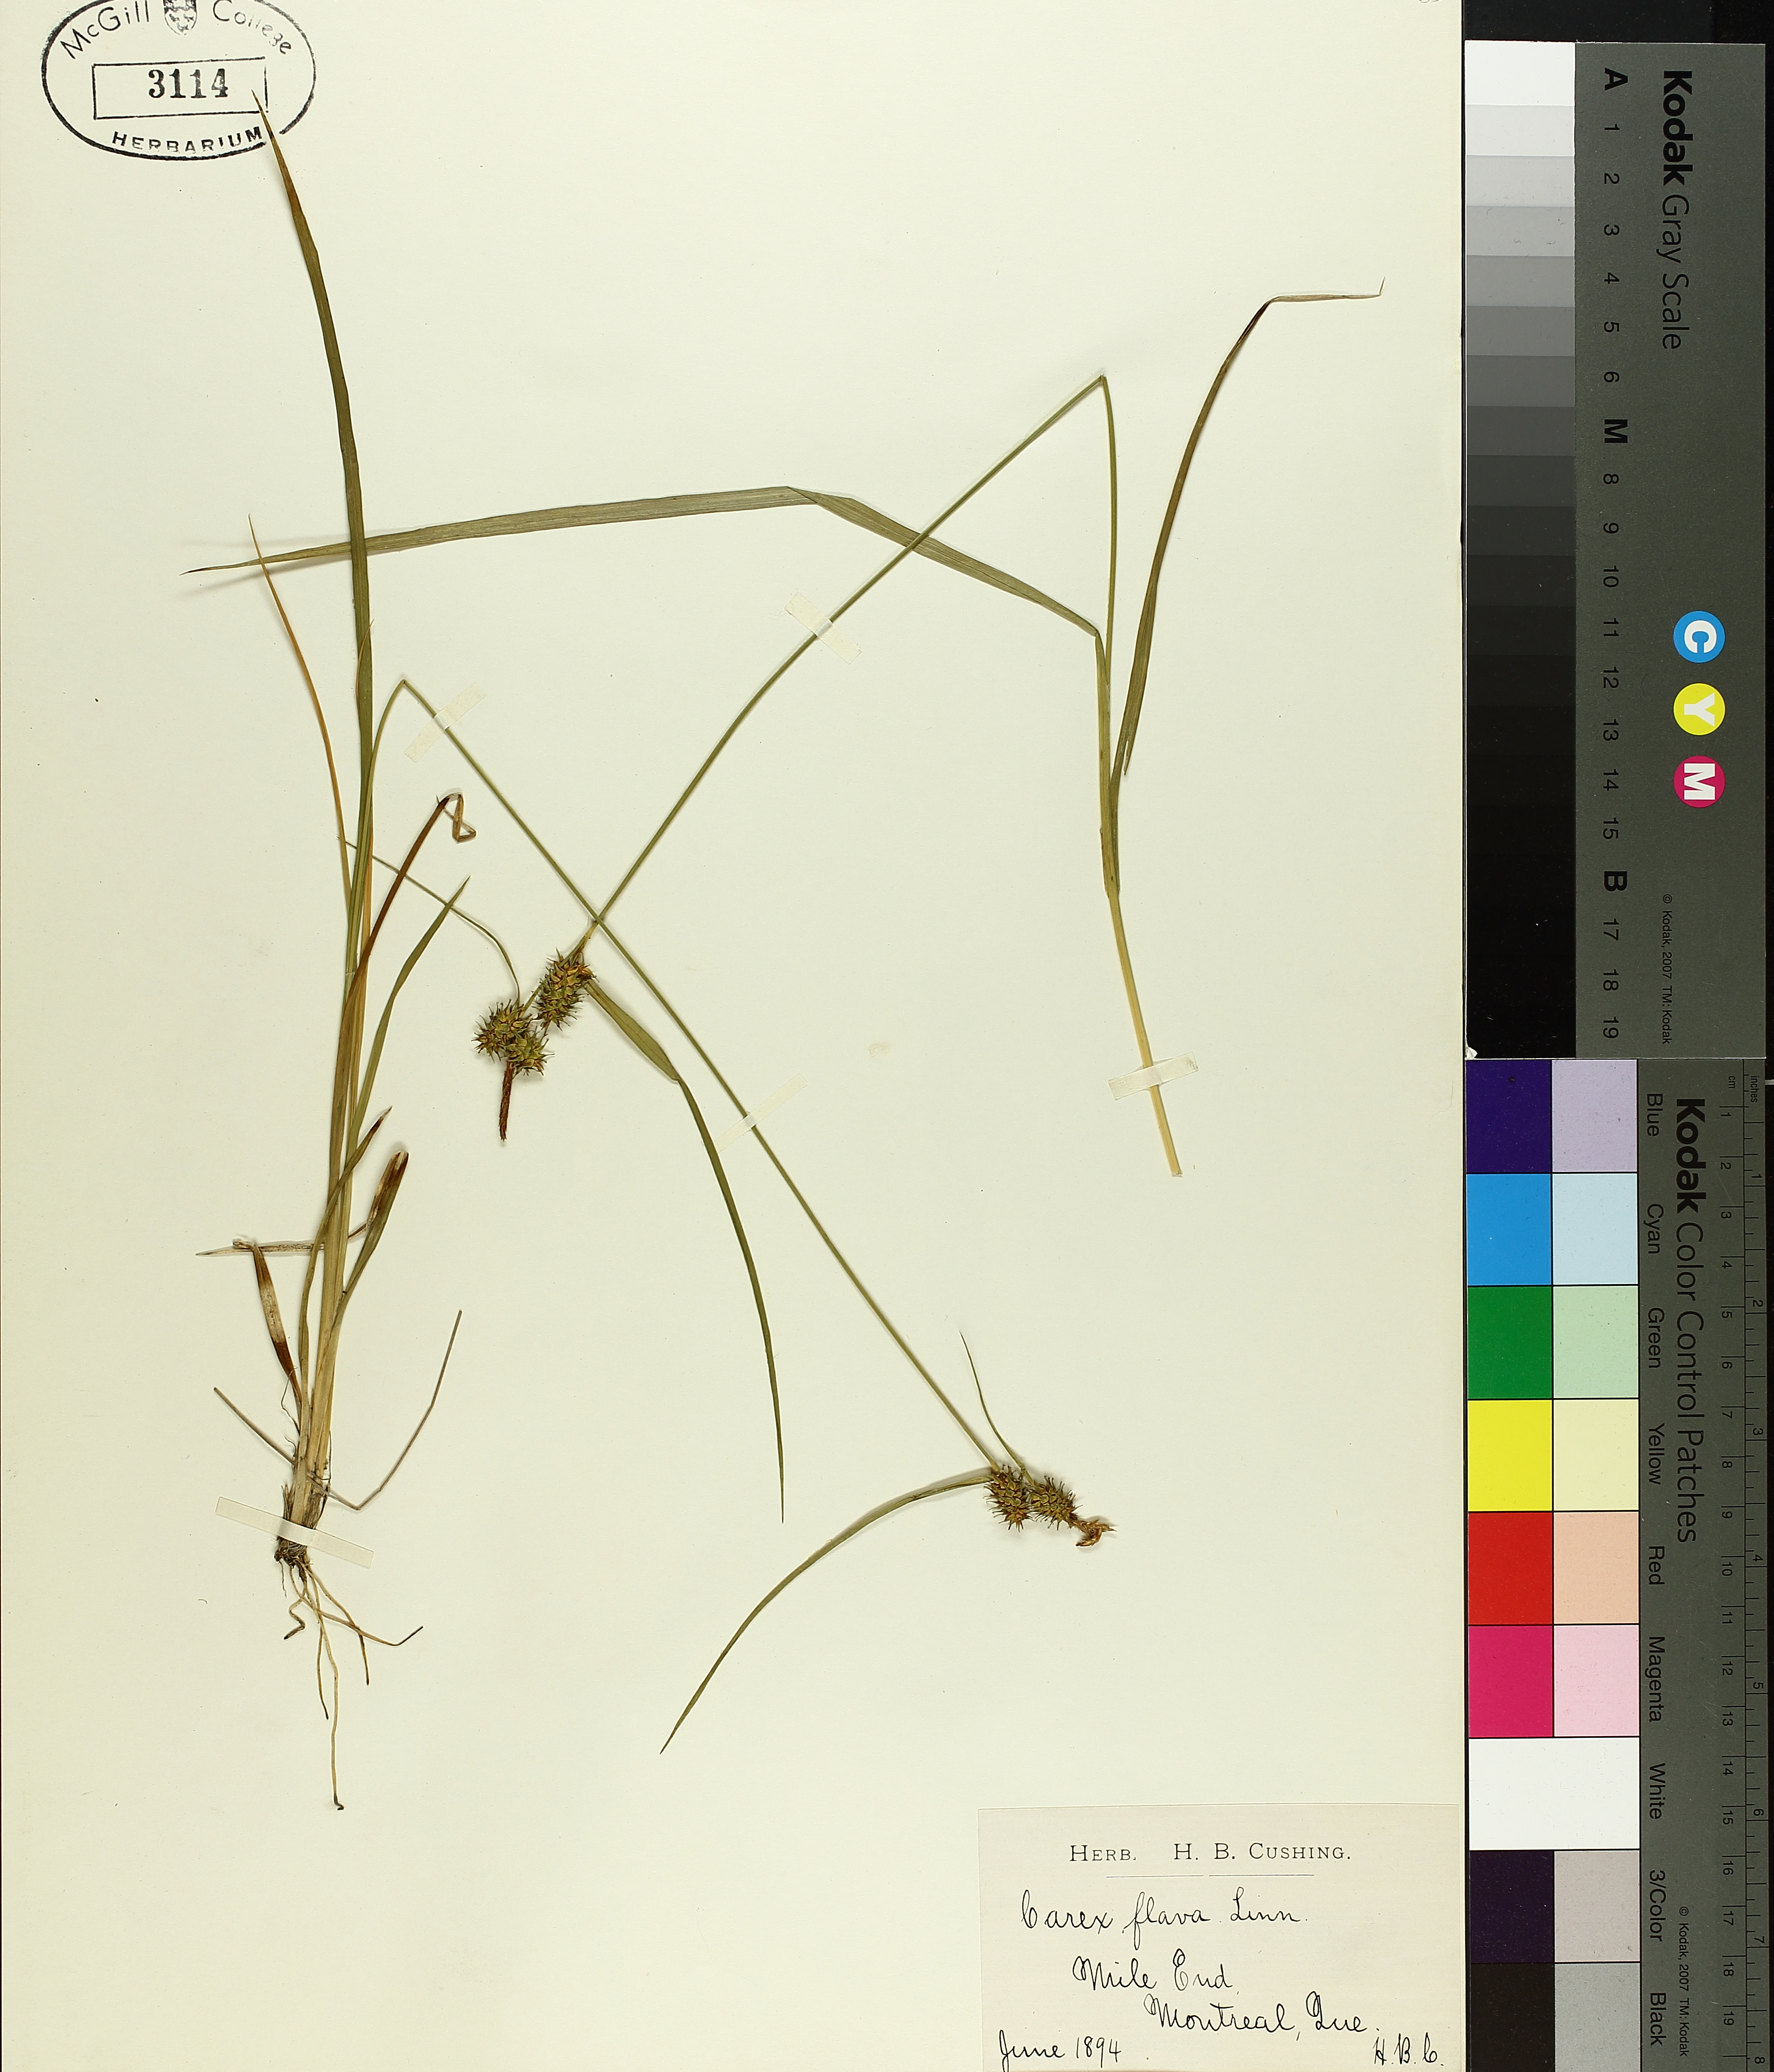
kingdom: Plantae
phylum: Tracheophyta
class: Liliopsida
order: Poales
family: Cyperaceae
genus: Carex
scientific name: Carex flava
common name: Large yellow-sedge
